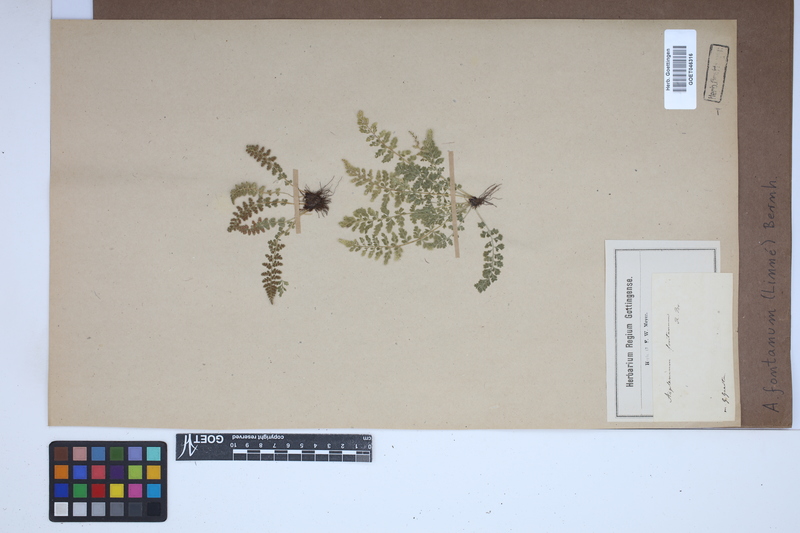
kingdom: Plantae
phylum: Tracheophyta
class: Polypodiopsida
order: Polypodiales
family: Aspleniaceae
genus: Asplenium
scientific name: Asplenium fontanum
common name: Fountain spleenwort
